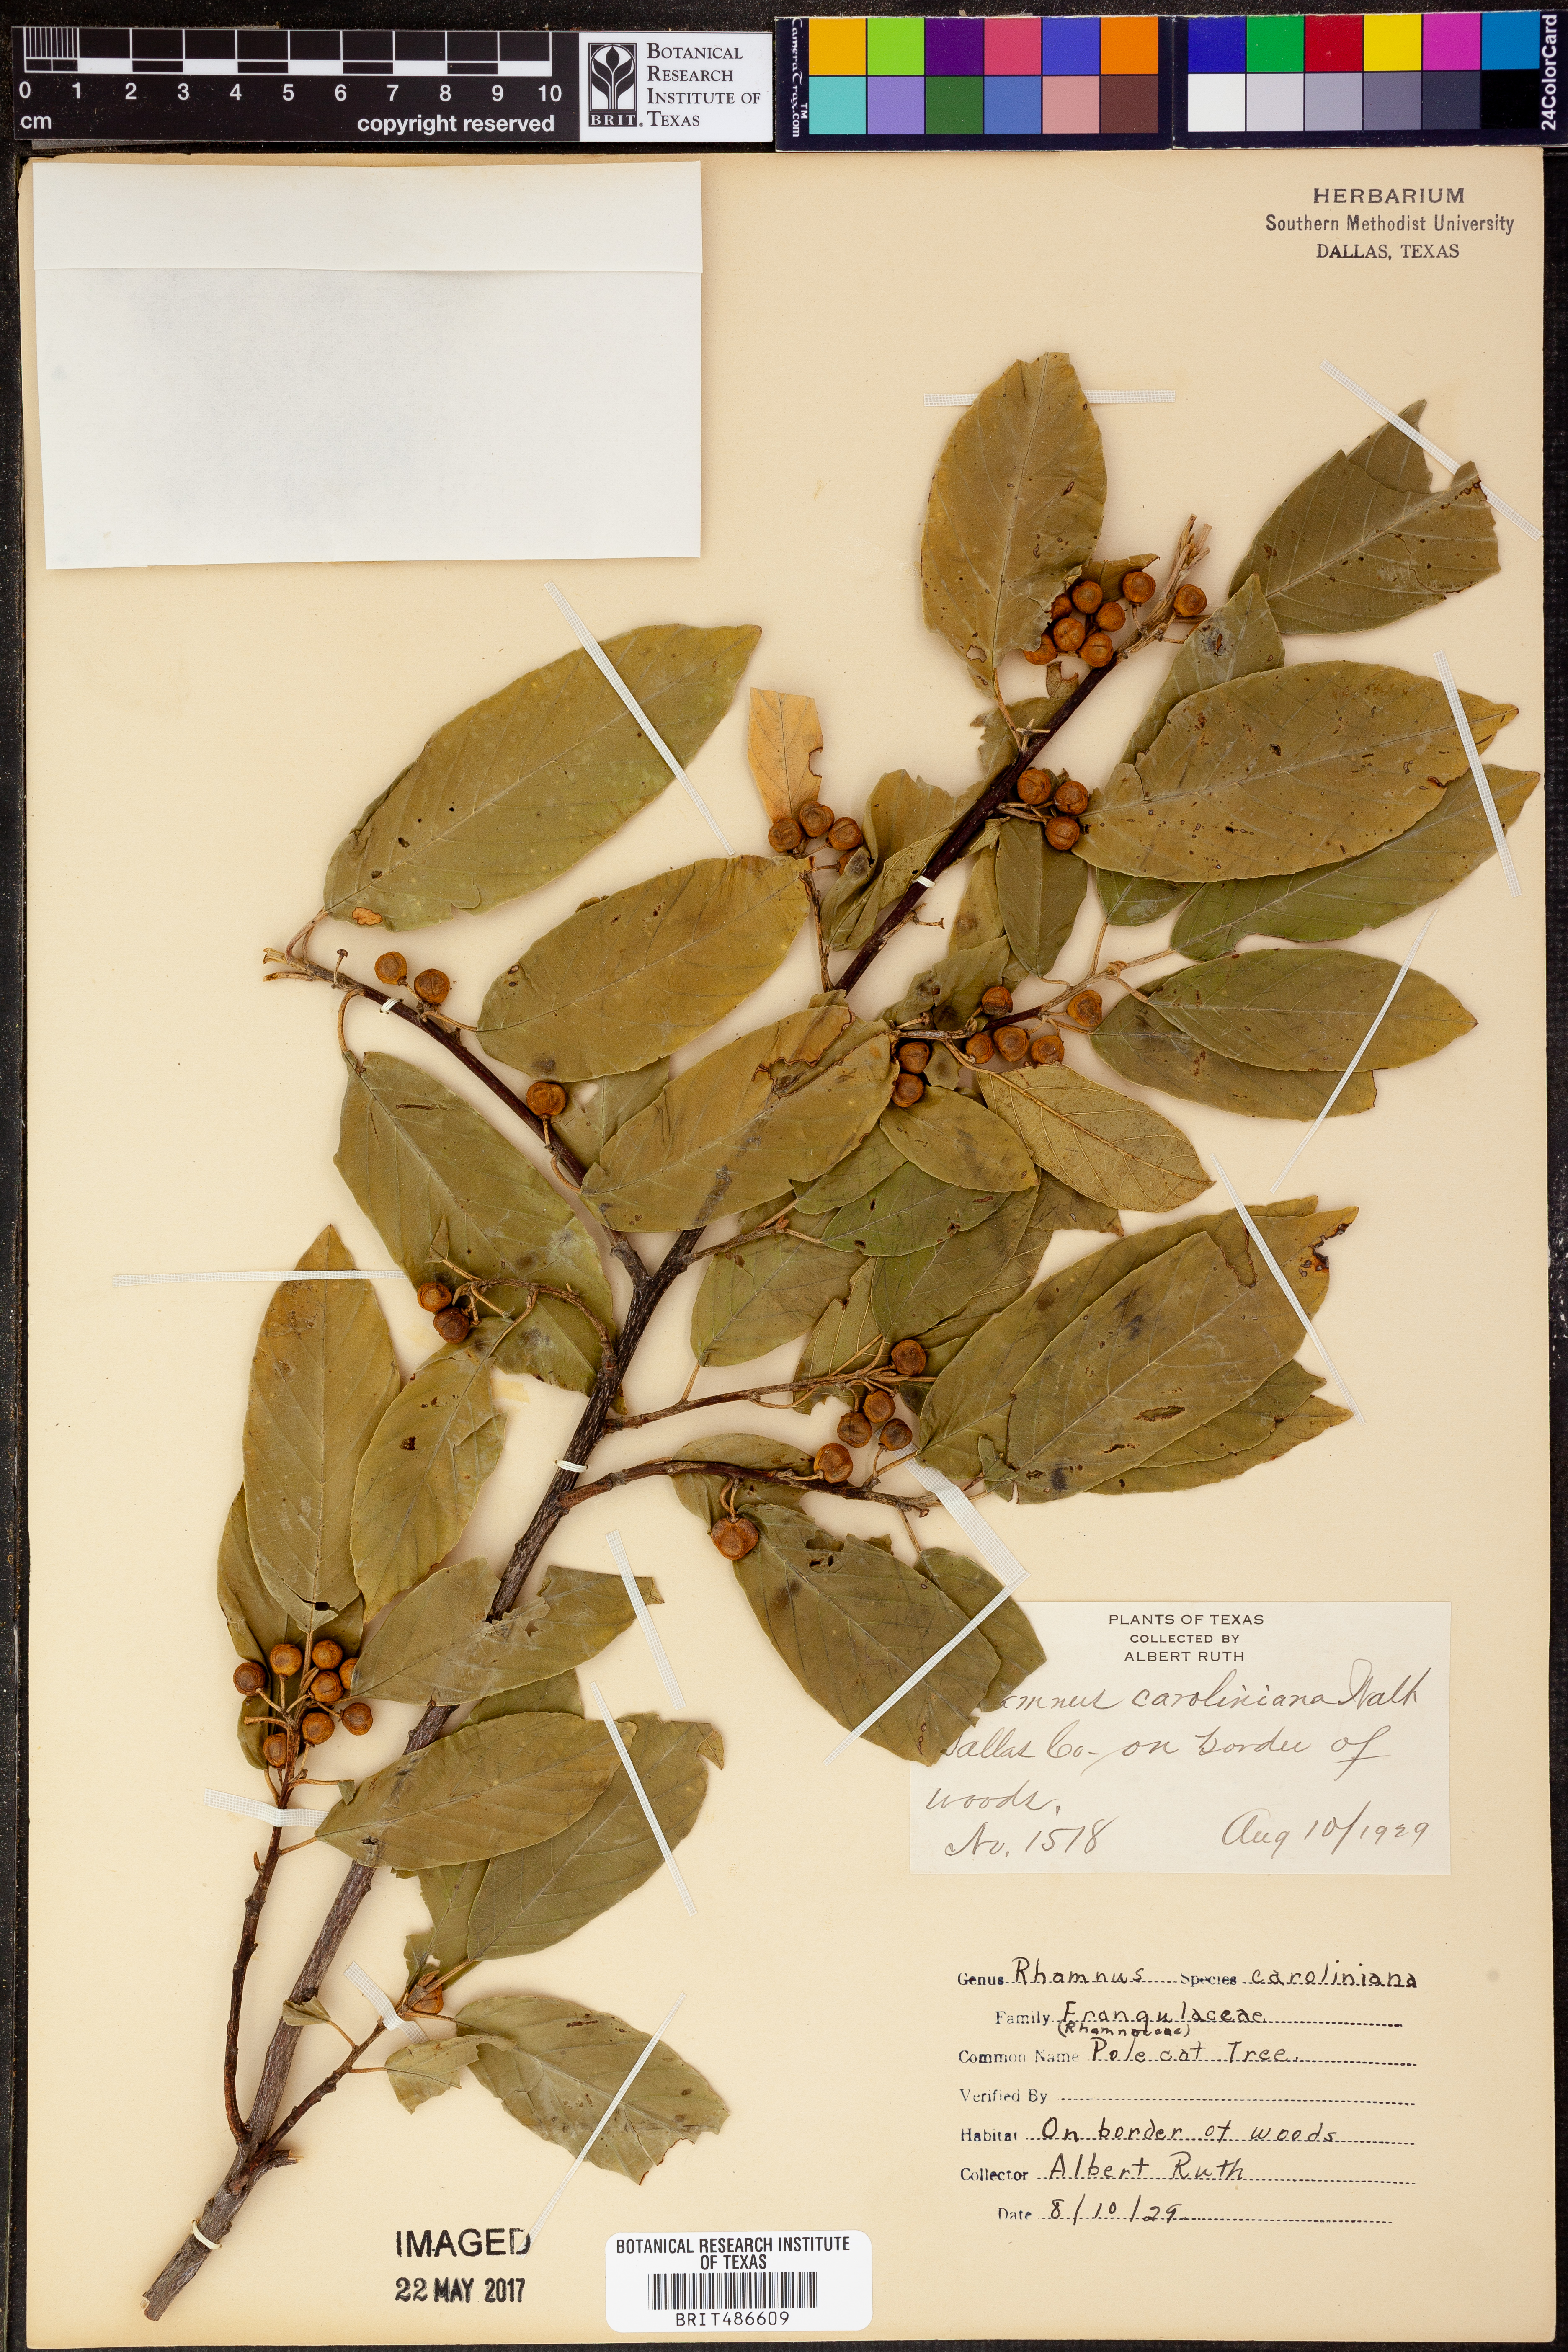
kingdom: Plantae
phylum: Tracheophyta
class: Magnoliopsida
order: Rosales
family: Rhamnaceae
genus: Frangula
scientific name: Frangula caroliniana
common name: Carolina buckthorn
